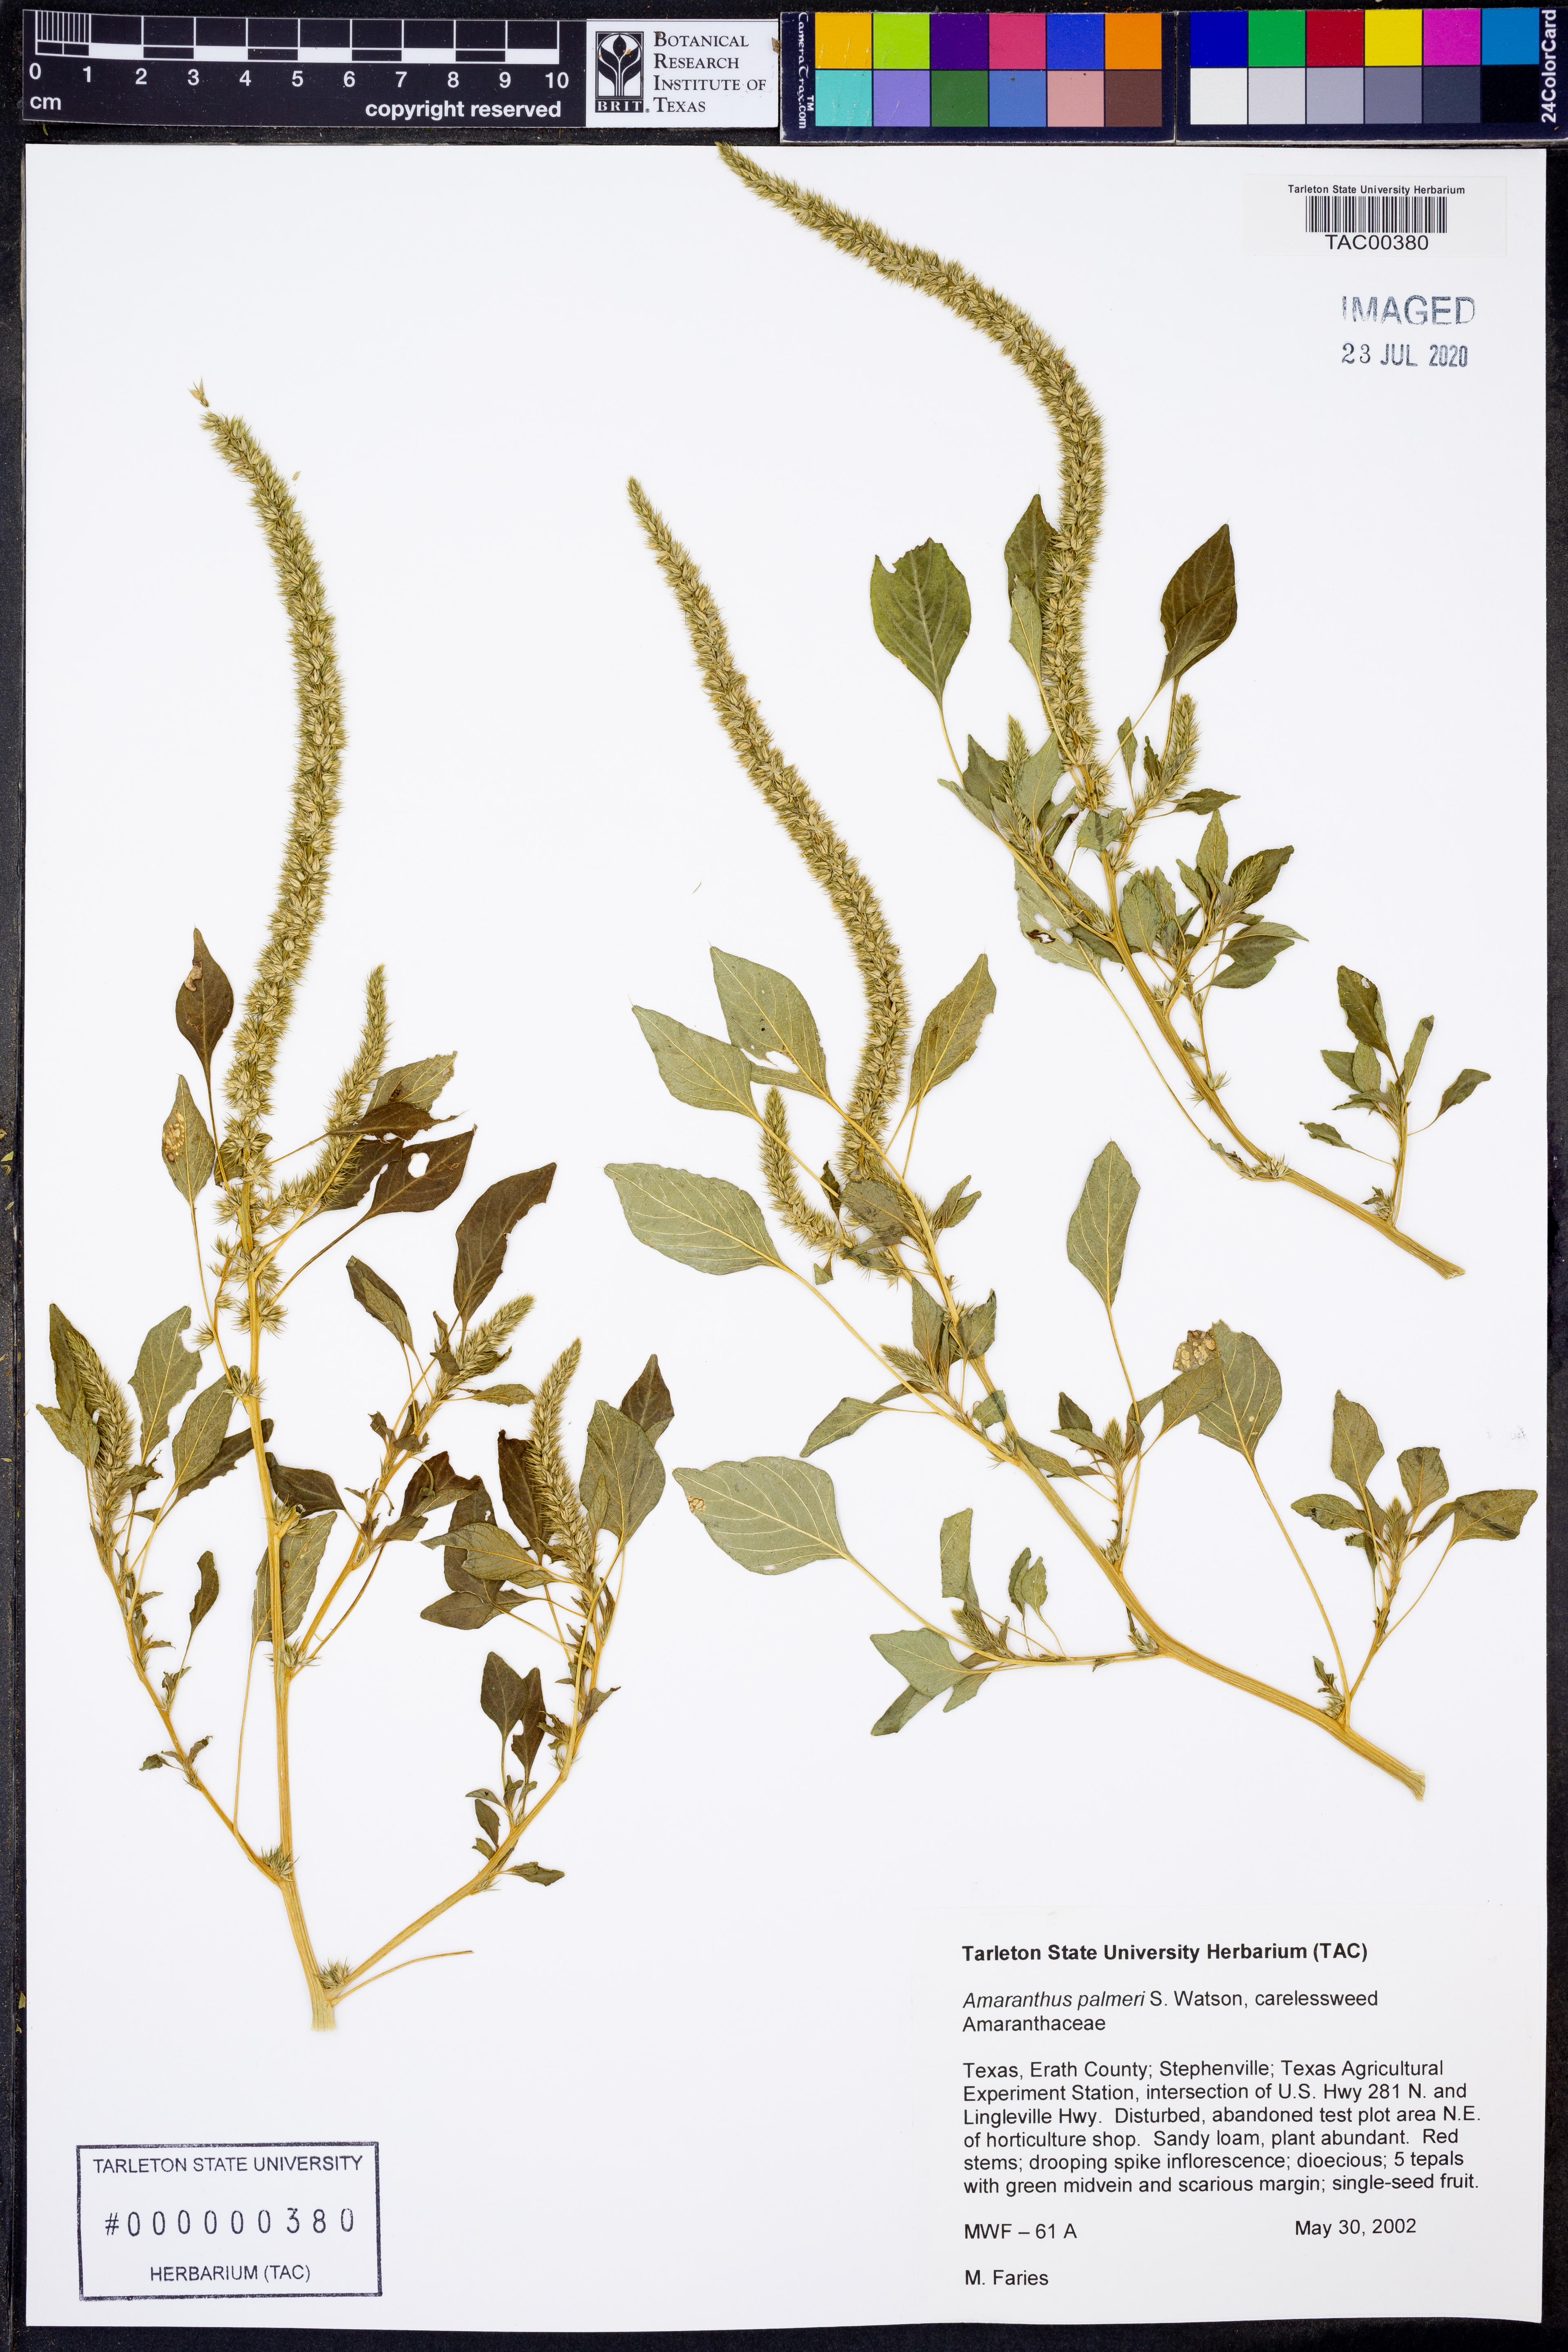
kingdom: Plantae
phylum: Tracheophyta
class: Magnoliopsida
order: Caryophyllales
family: Amaranthaceae
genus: Amaranthus
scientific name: Amaranthus palmeri
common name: Dioecious amaranth
